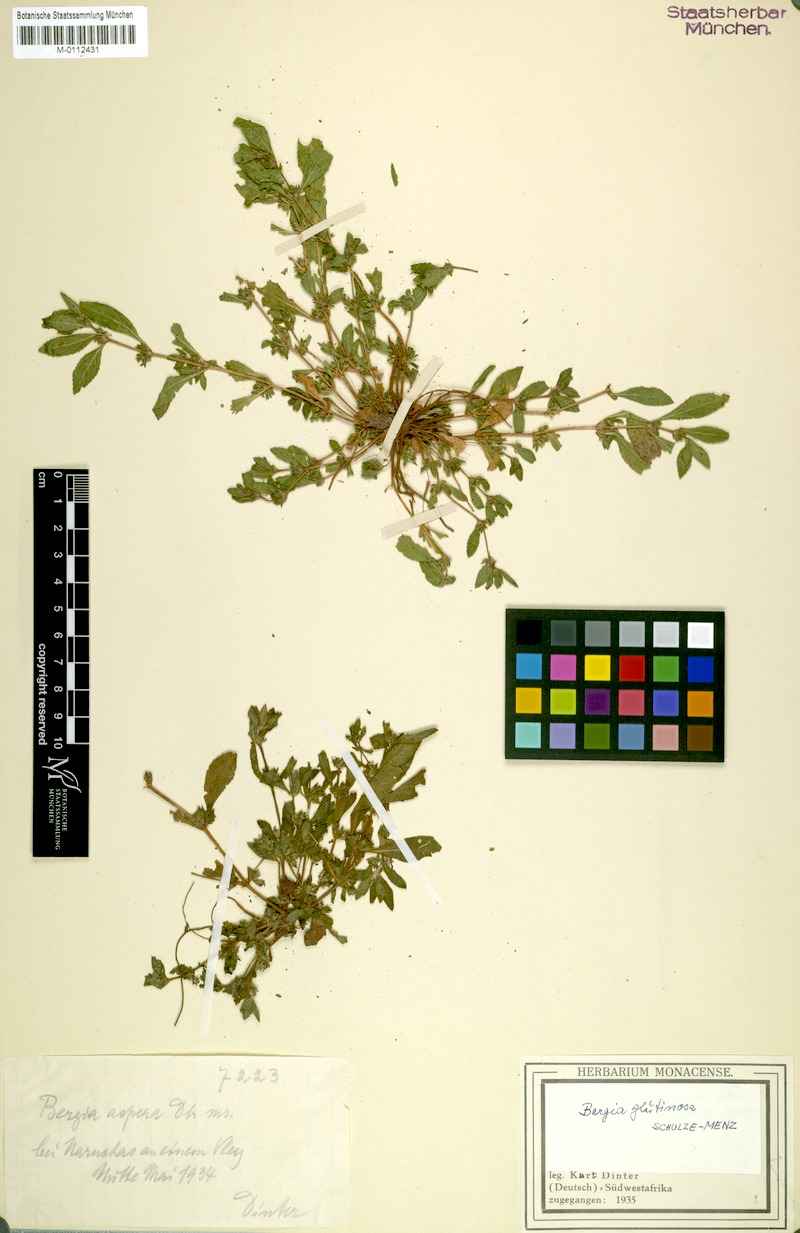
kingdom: Plantae
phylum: Tracheophyta
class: Magnoliopsida
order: Malpighiales
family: Elatinaceae
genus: Bergia
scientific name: Bergia glutinosa
